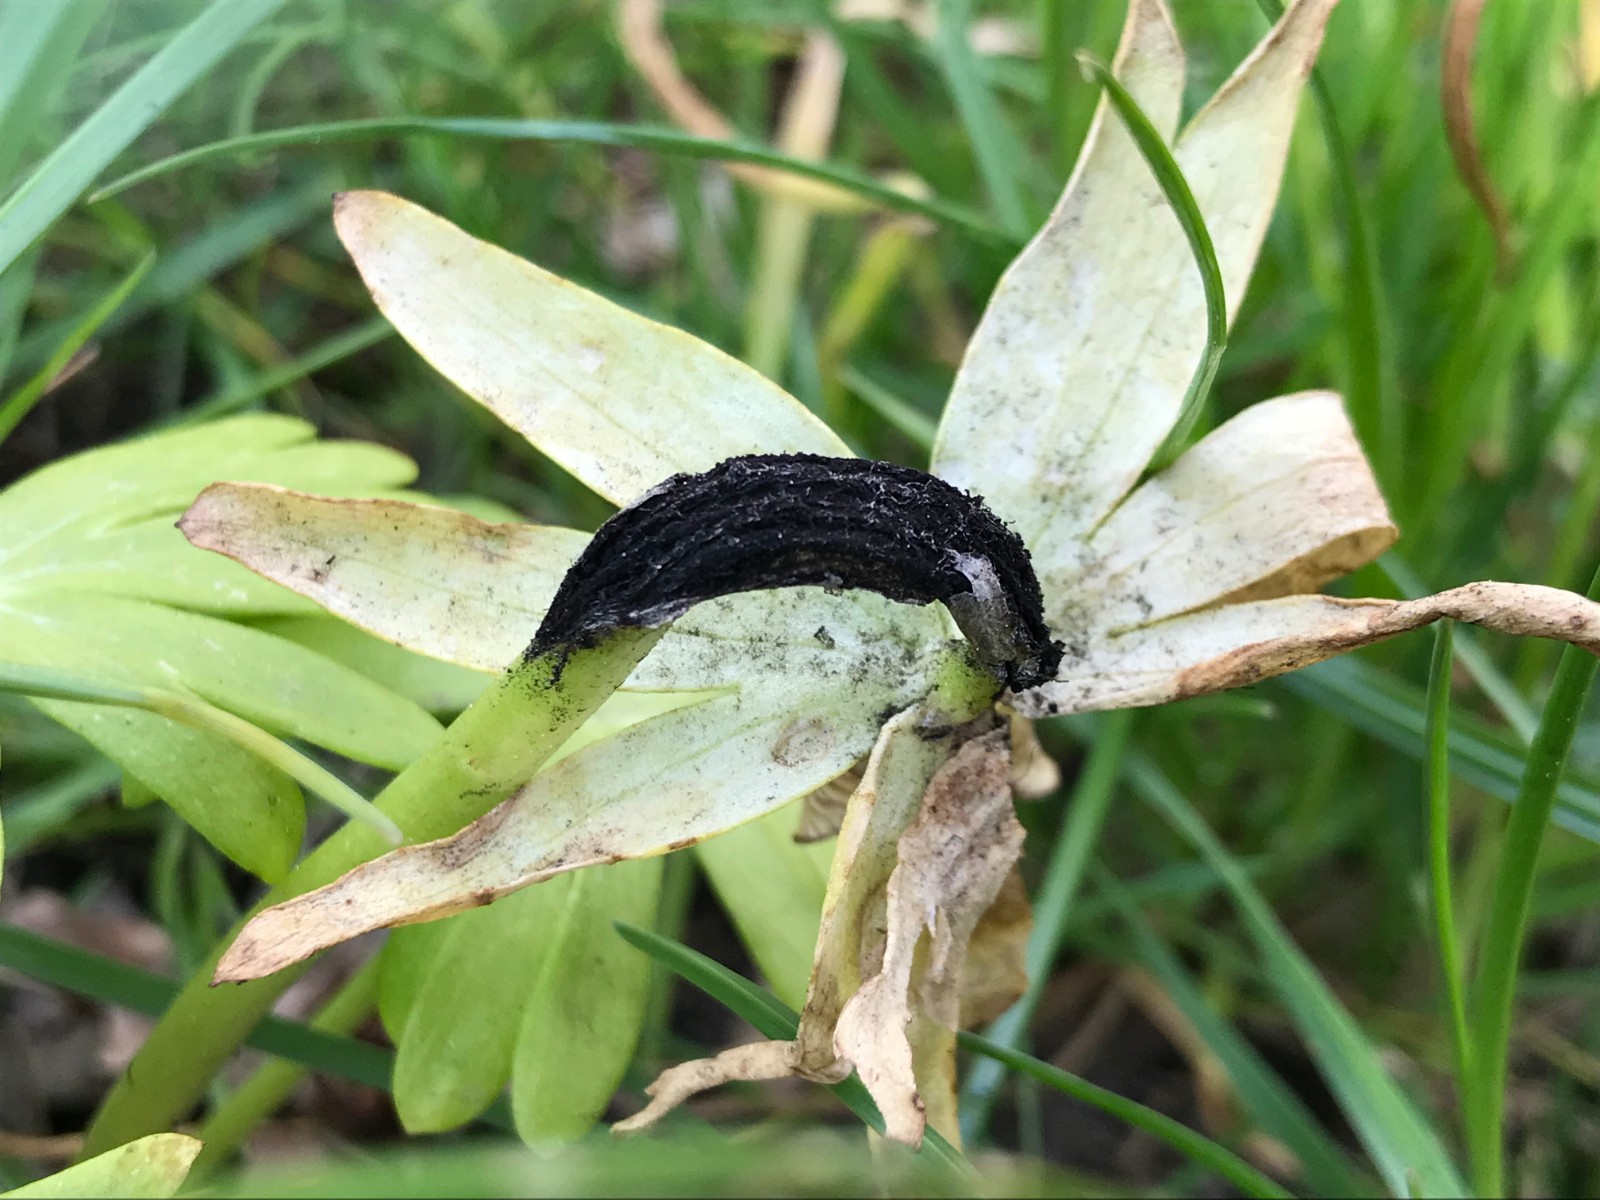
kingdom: Fungi
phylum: Basidiomycota
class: Ustilaginomycetes
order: Urocystidales
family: Urocystidaceae
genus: Urocystis
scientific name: Urocystis eranthidis
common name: erantis-brand
